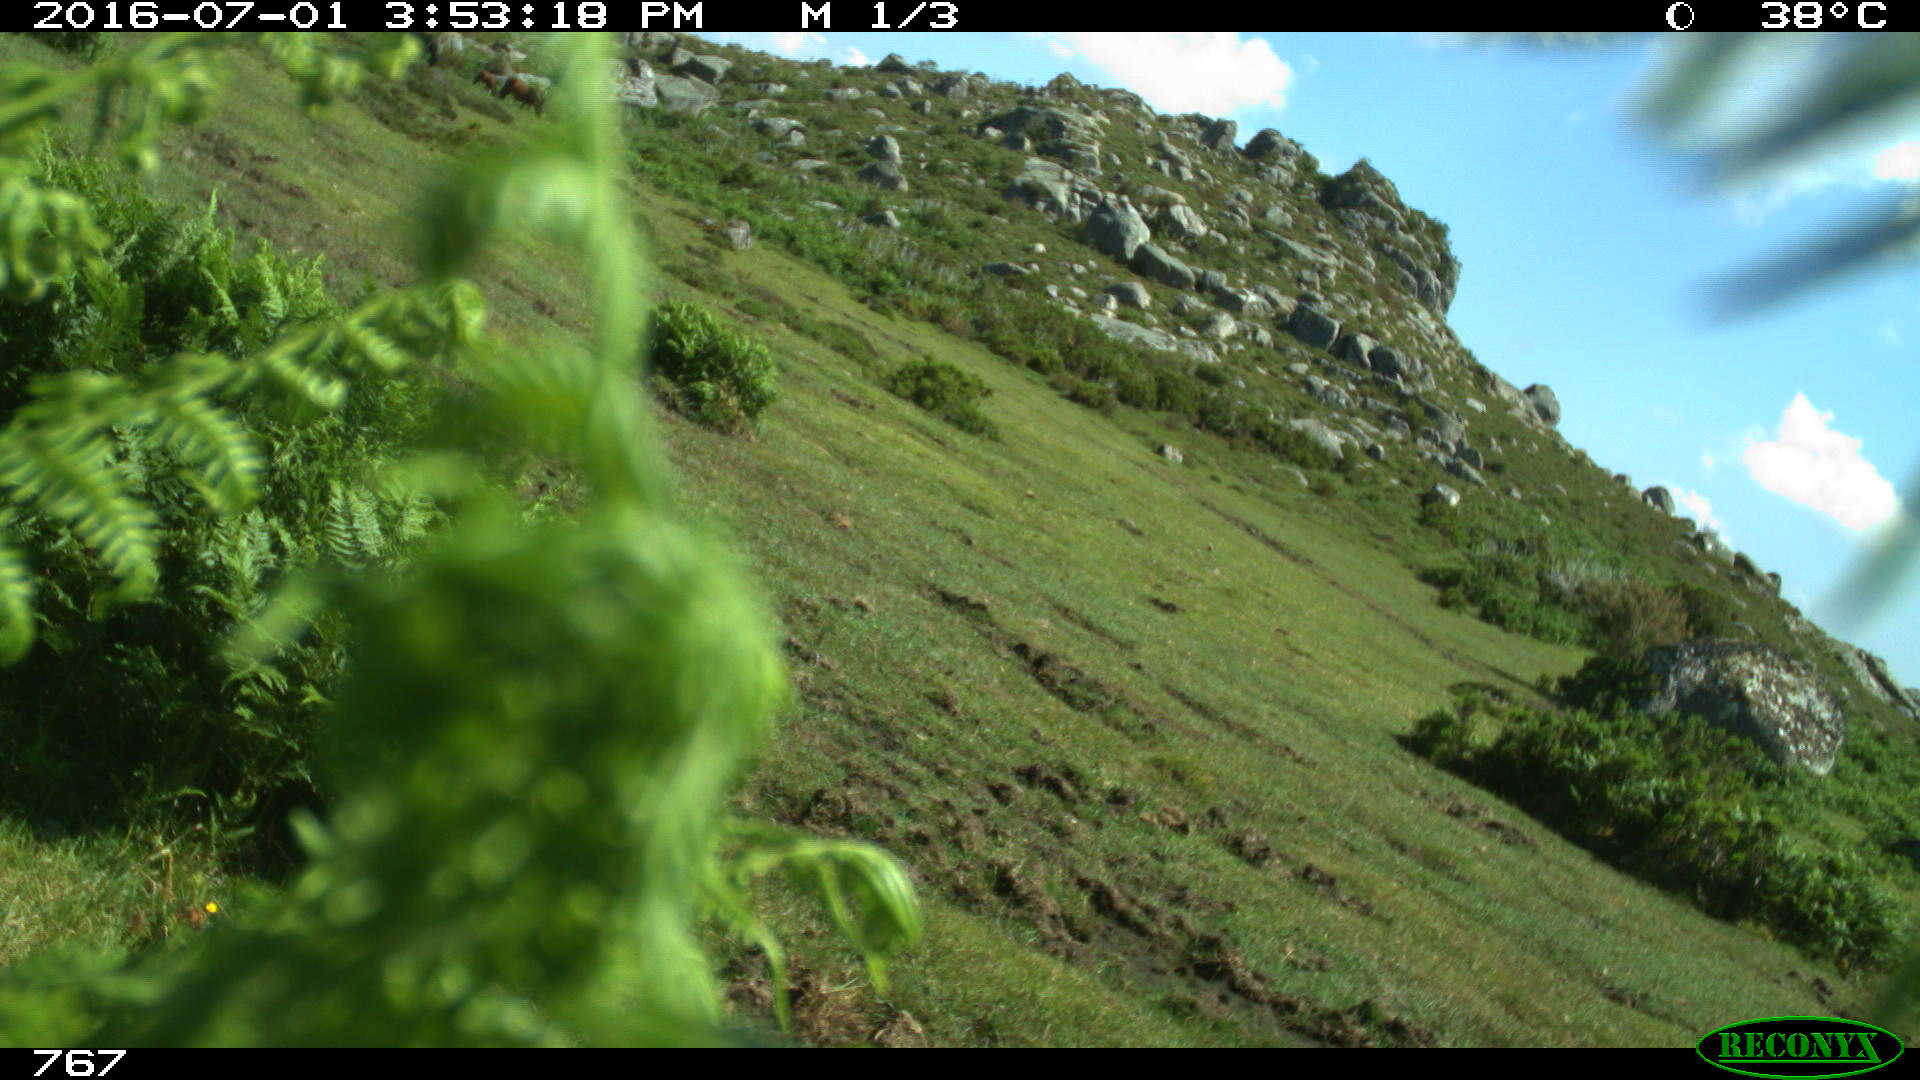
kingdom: Animalia
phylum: Chordata
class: Mammalia
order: Perissodactyla
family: Equidae
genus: Equus
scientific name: Equus caballus
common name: Horse
